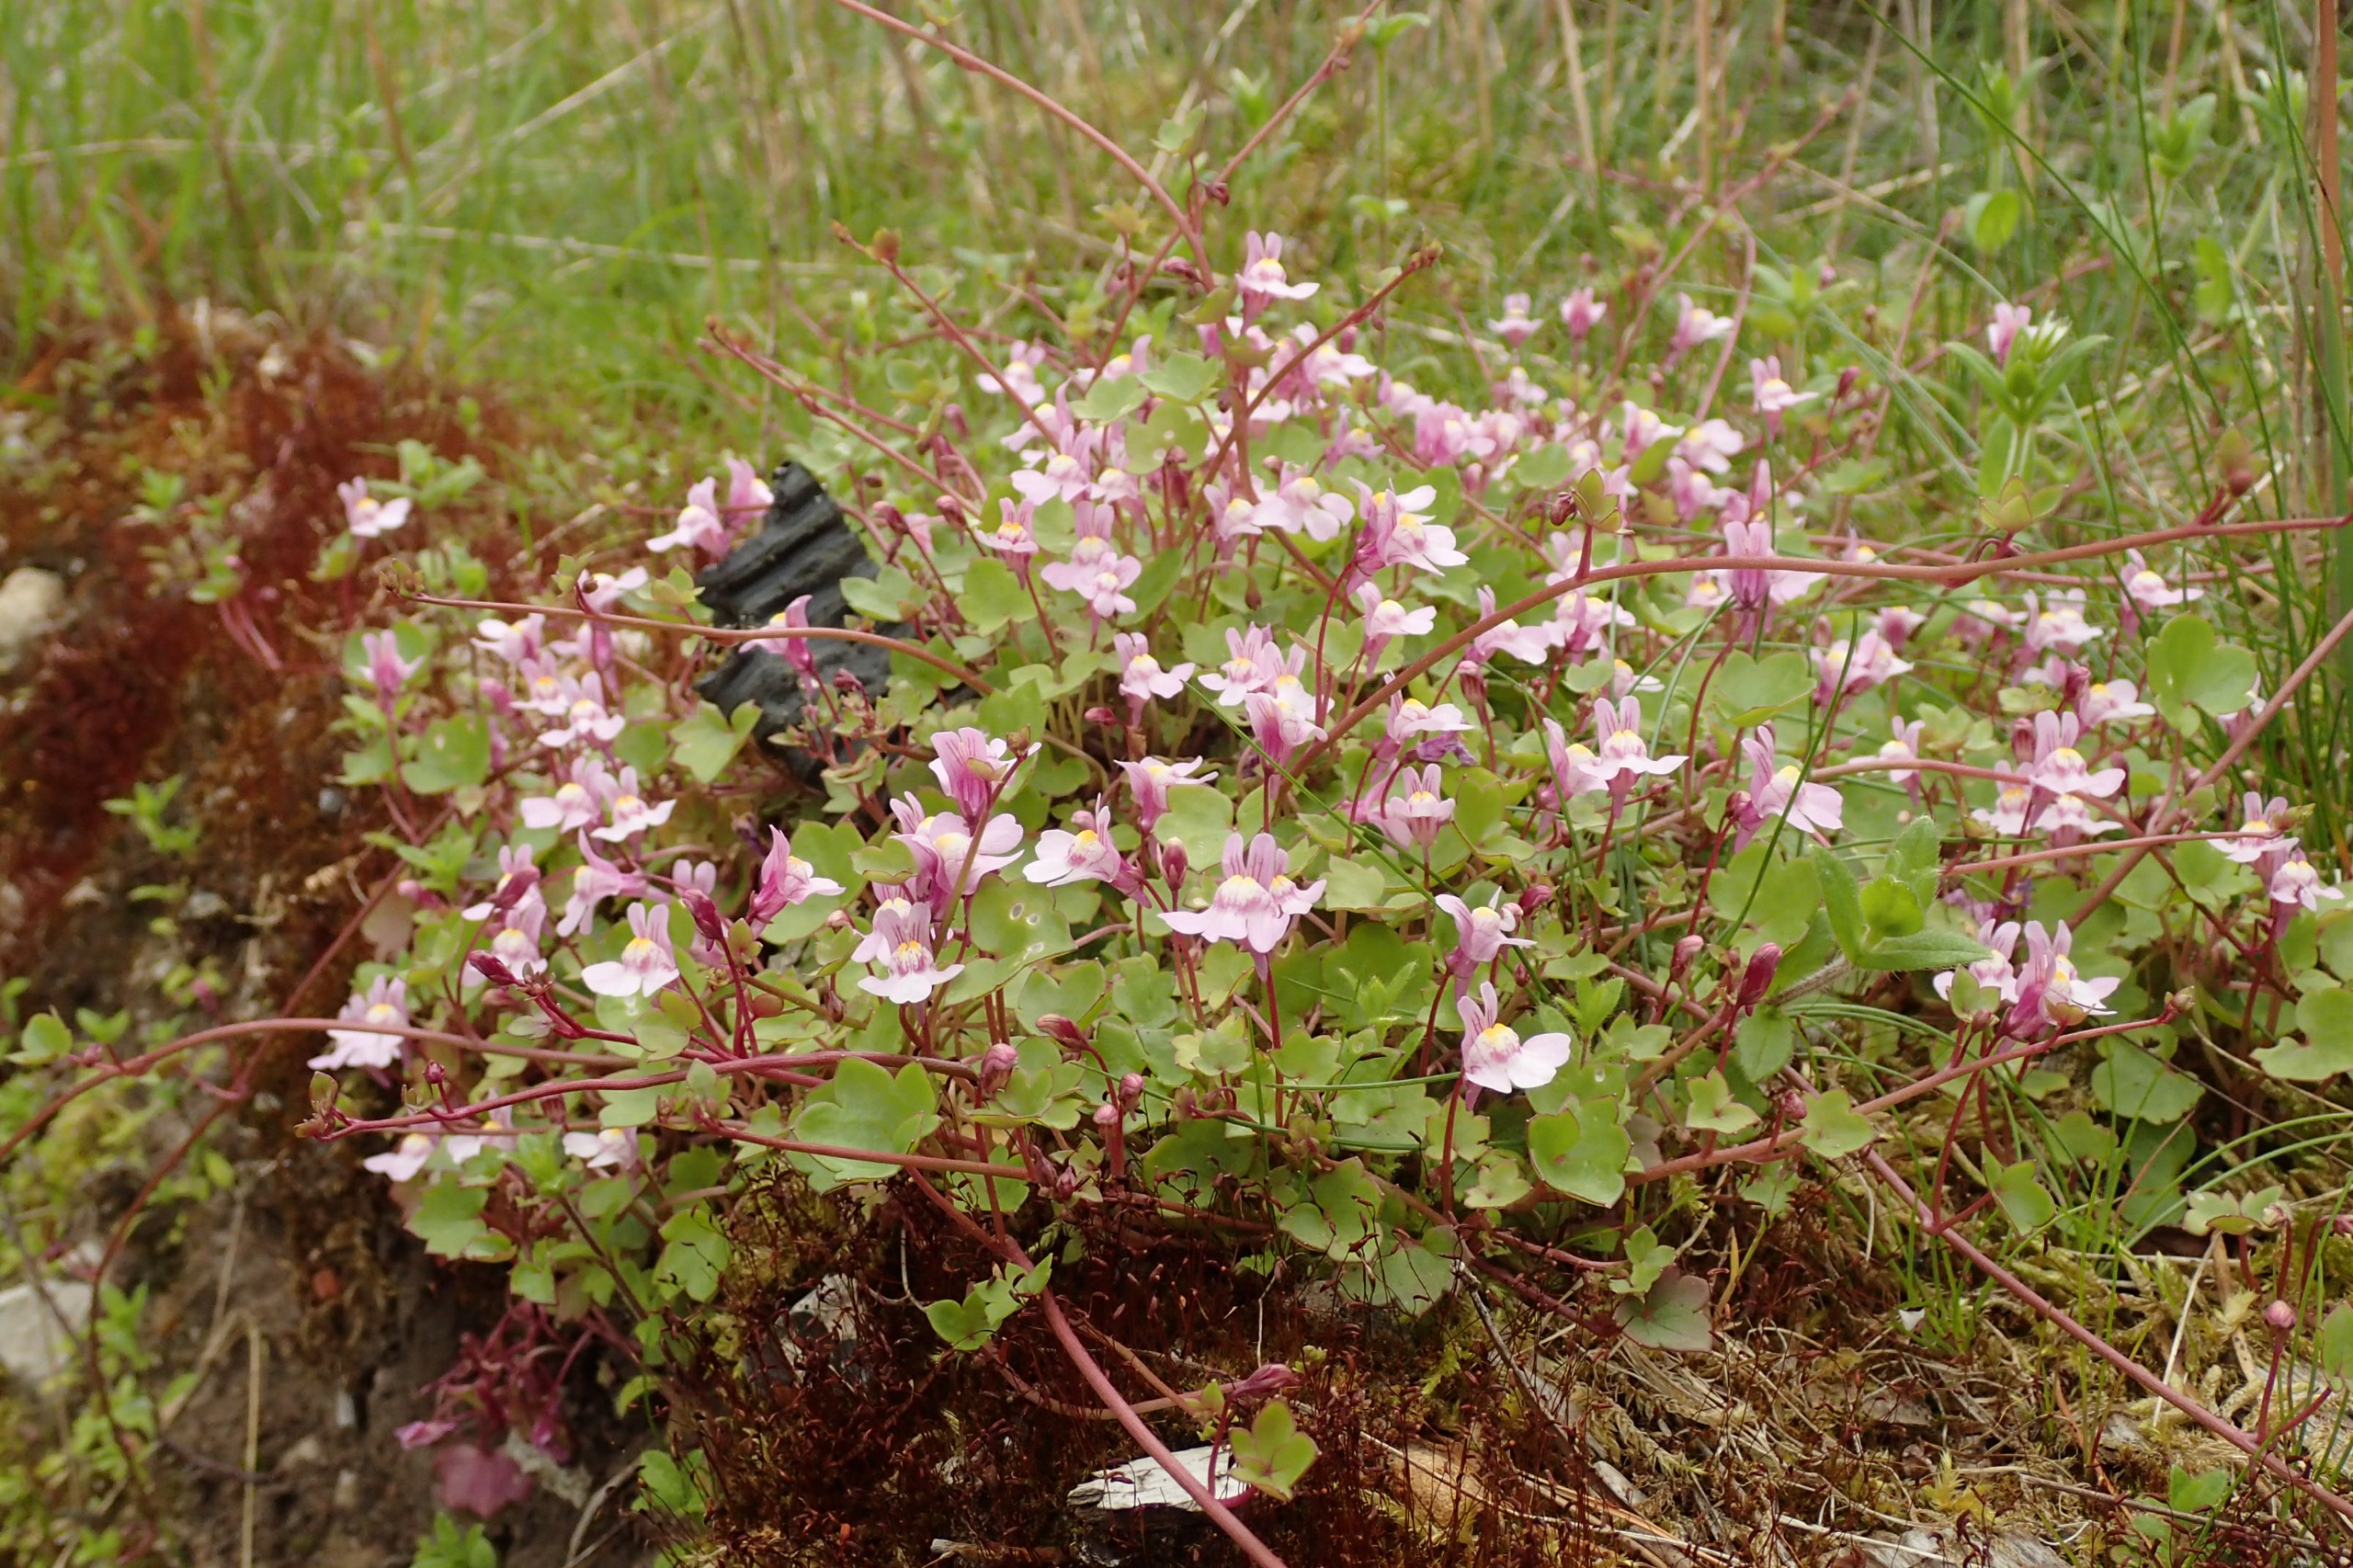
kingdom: Plantae
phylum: Tracheophyta
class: Magnoliopsida
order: Lamiales
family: Plantaginaceae
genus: Cymbalaria
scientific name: Cymbalaria muralis
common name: Vedbend-torskemund
